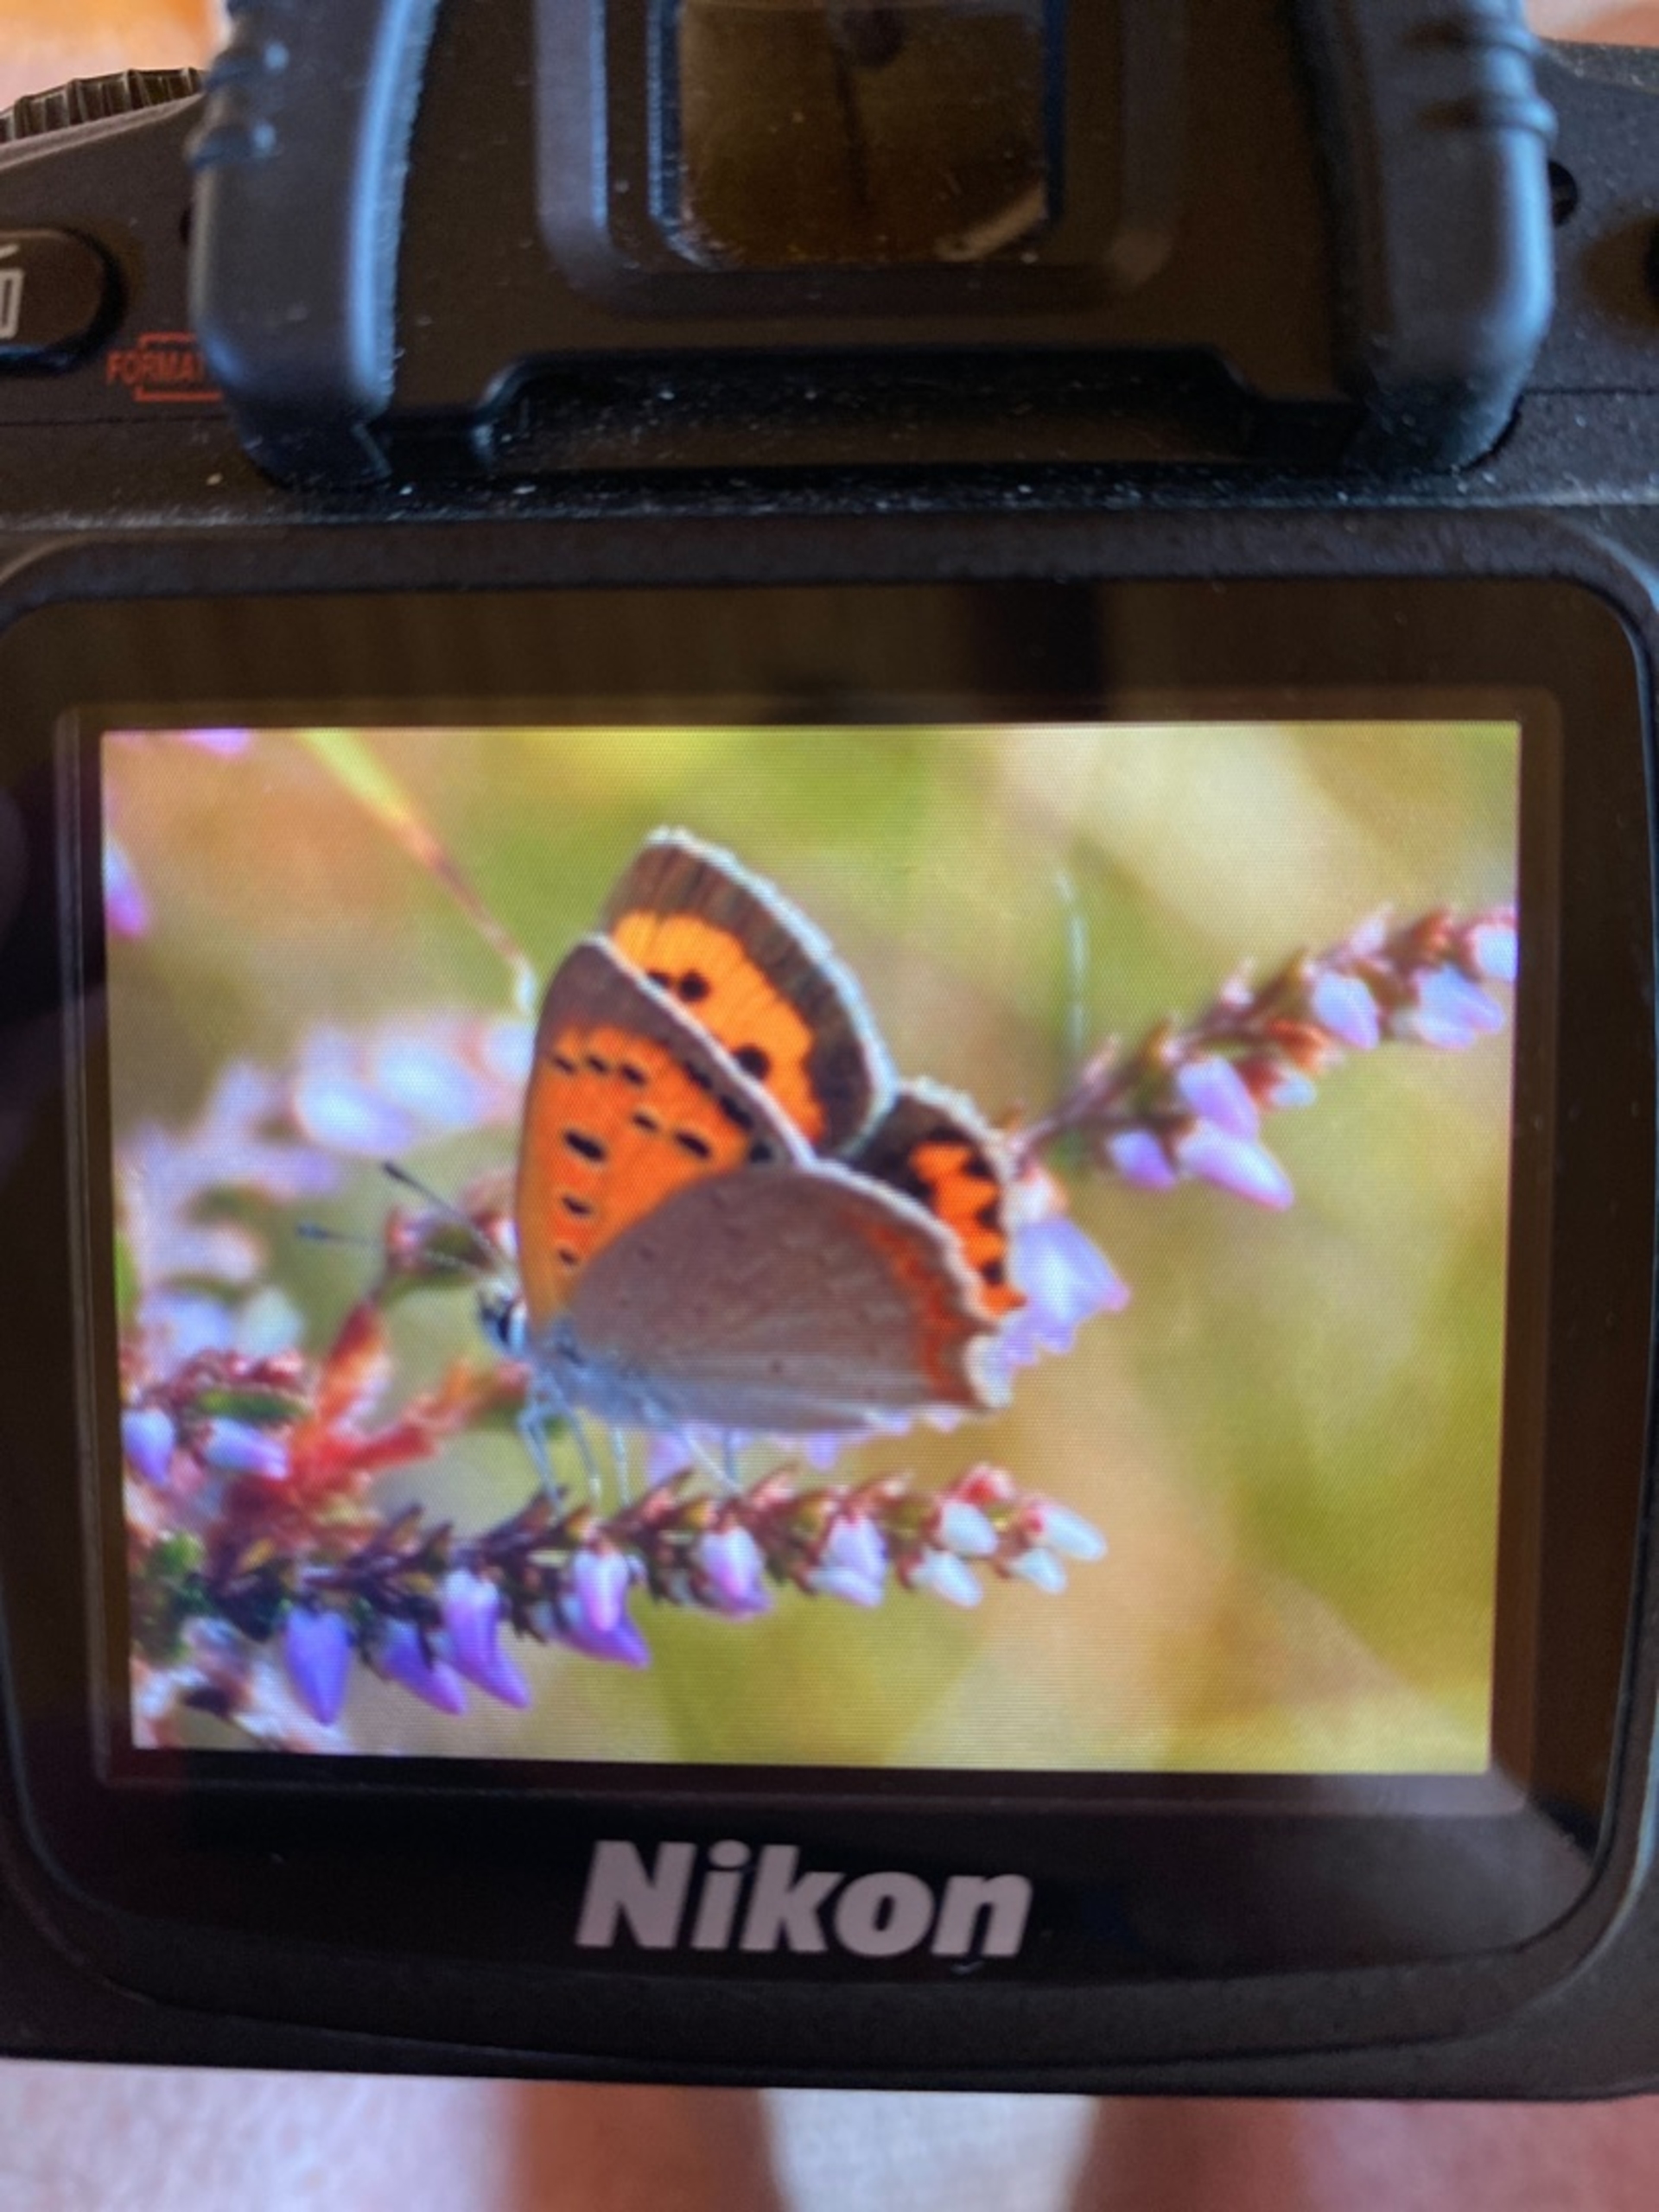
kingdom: Animalia
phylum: Arthropoda
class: Insecta
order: Lepidoptera
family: Lycaenidae
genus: Lycaena
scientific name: Lycaena phlaeas
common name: Lille ildfugl
